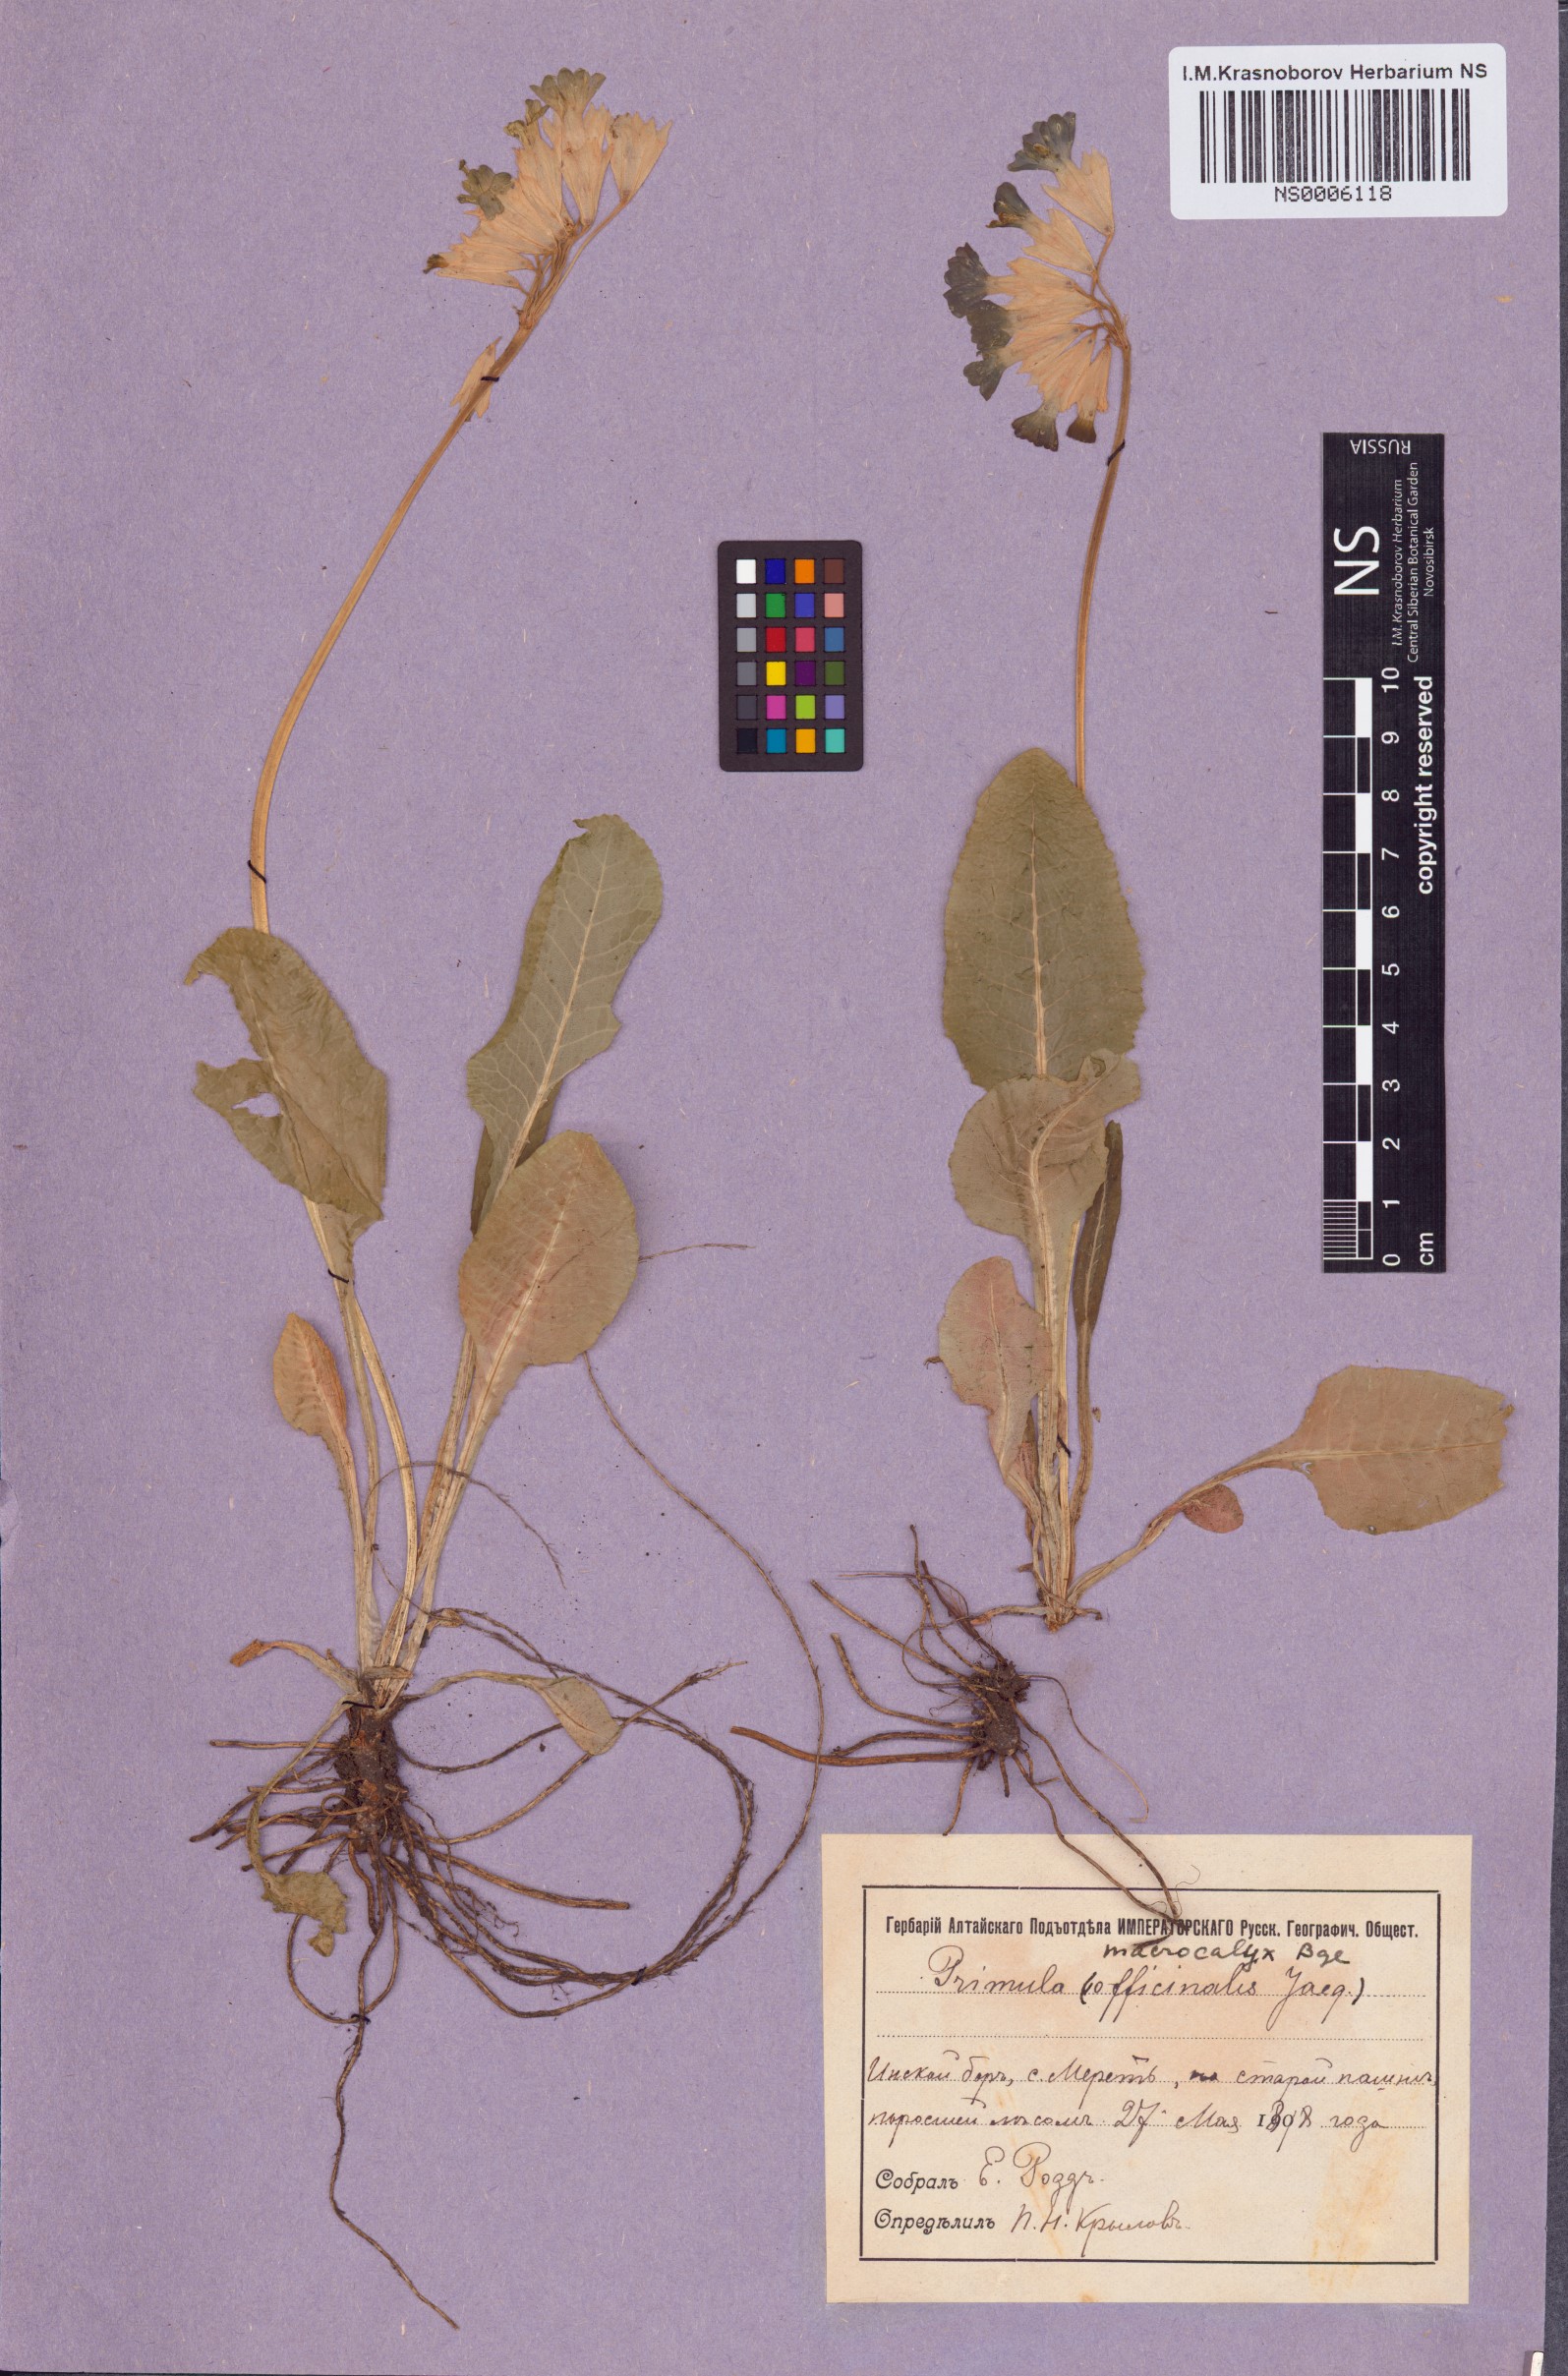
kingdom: Plantae
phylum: Tracheophyta
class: Magnoliopsida
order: Ericales
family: Primulaceae
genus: Primula
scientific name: Primula veris
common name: Cowslip
